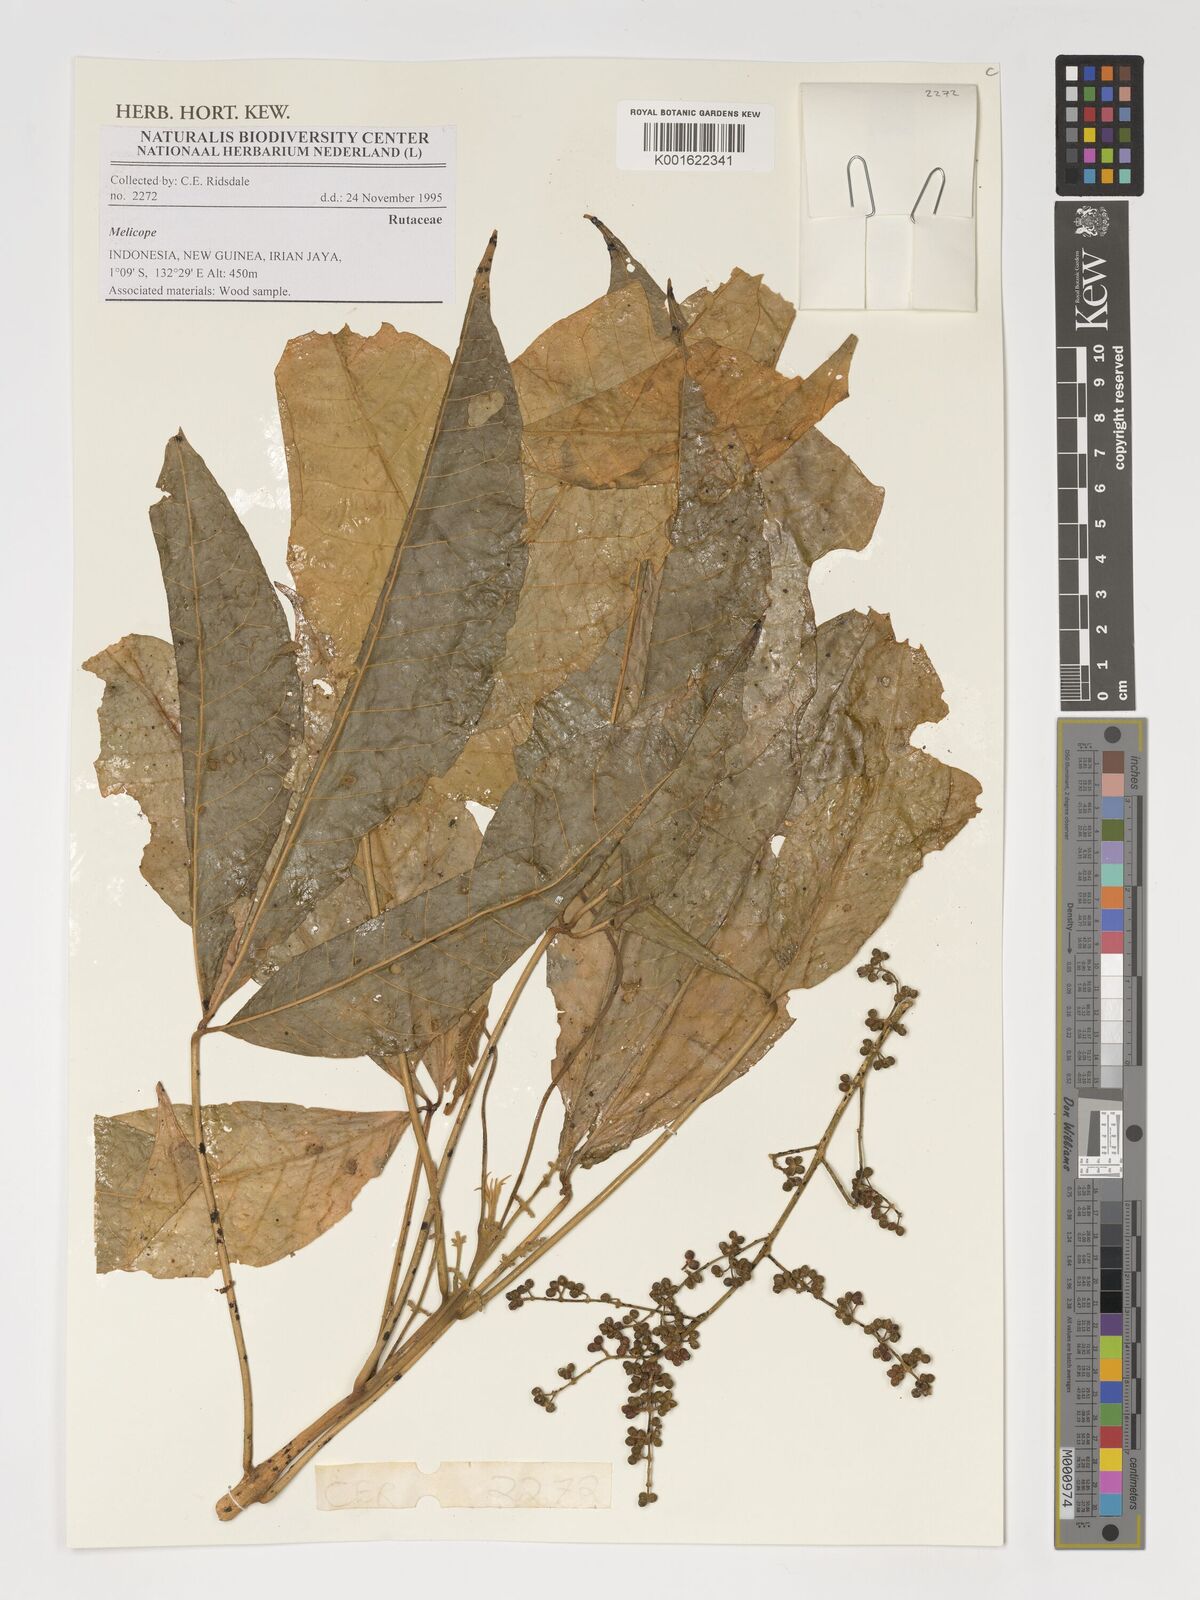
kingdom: Plantae
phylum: Tracheophyta
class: Magnoliopsida
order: Sapindales
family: Rutaceae
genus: Melicope
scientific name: Melicope
